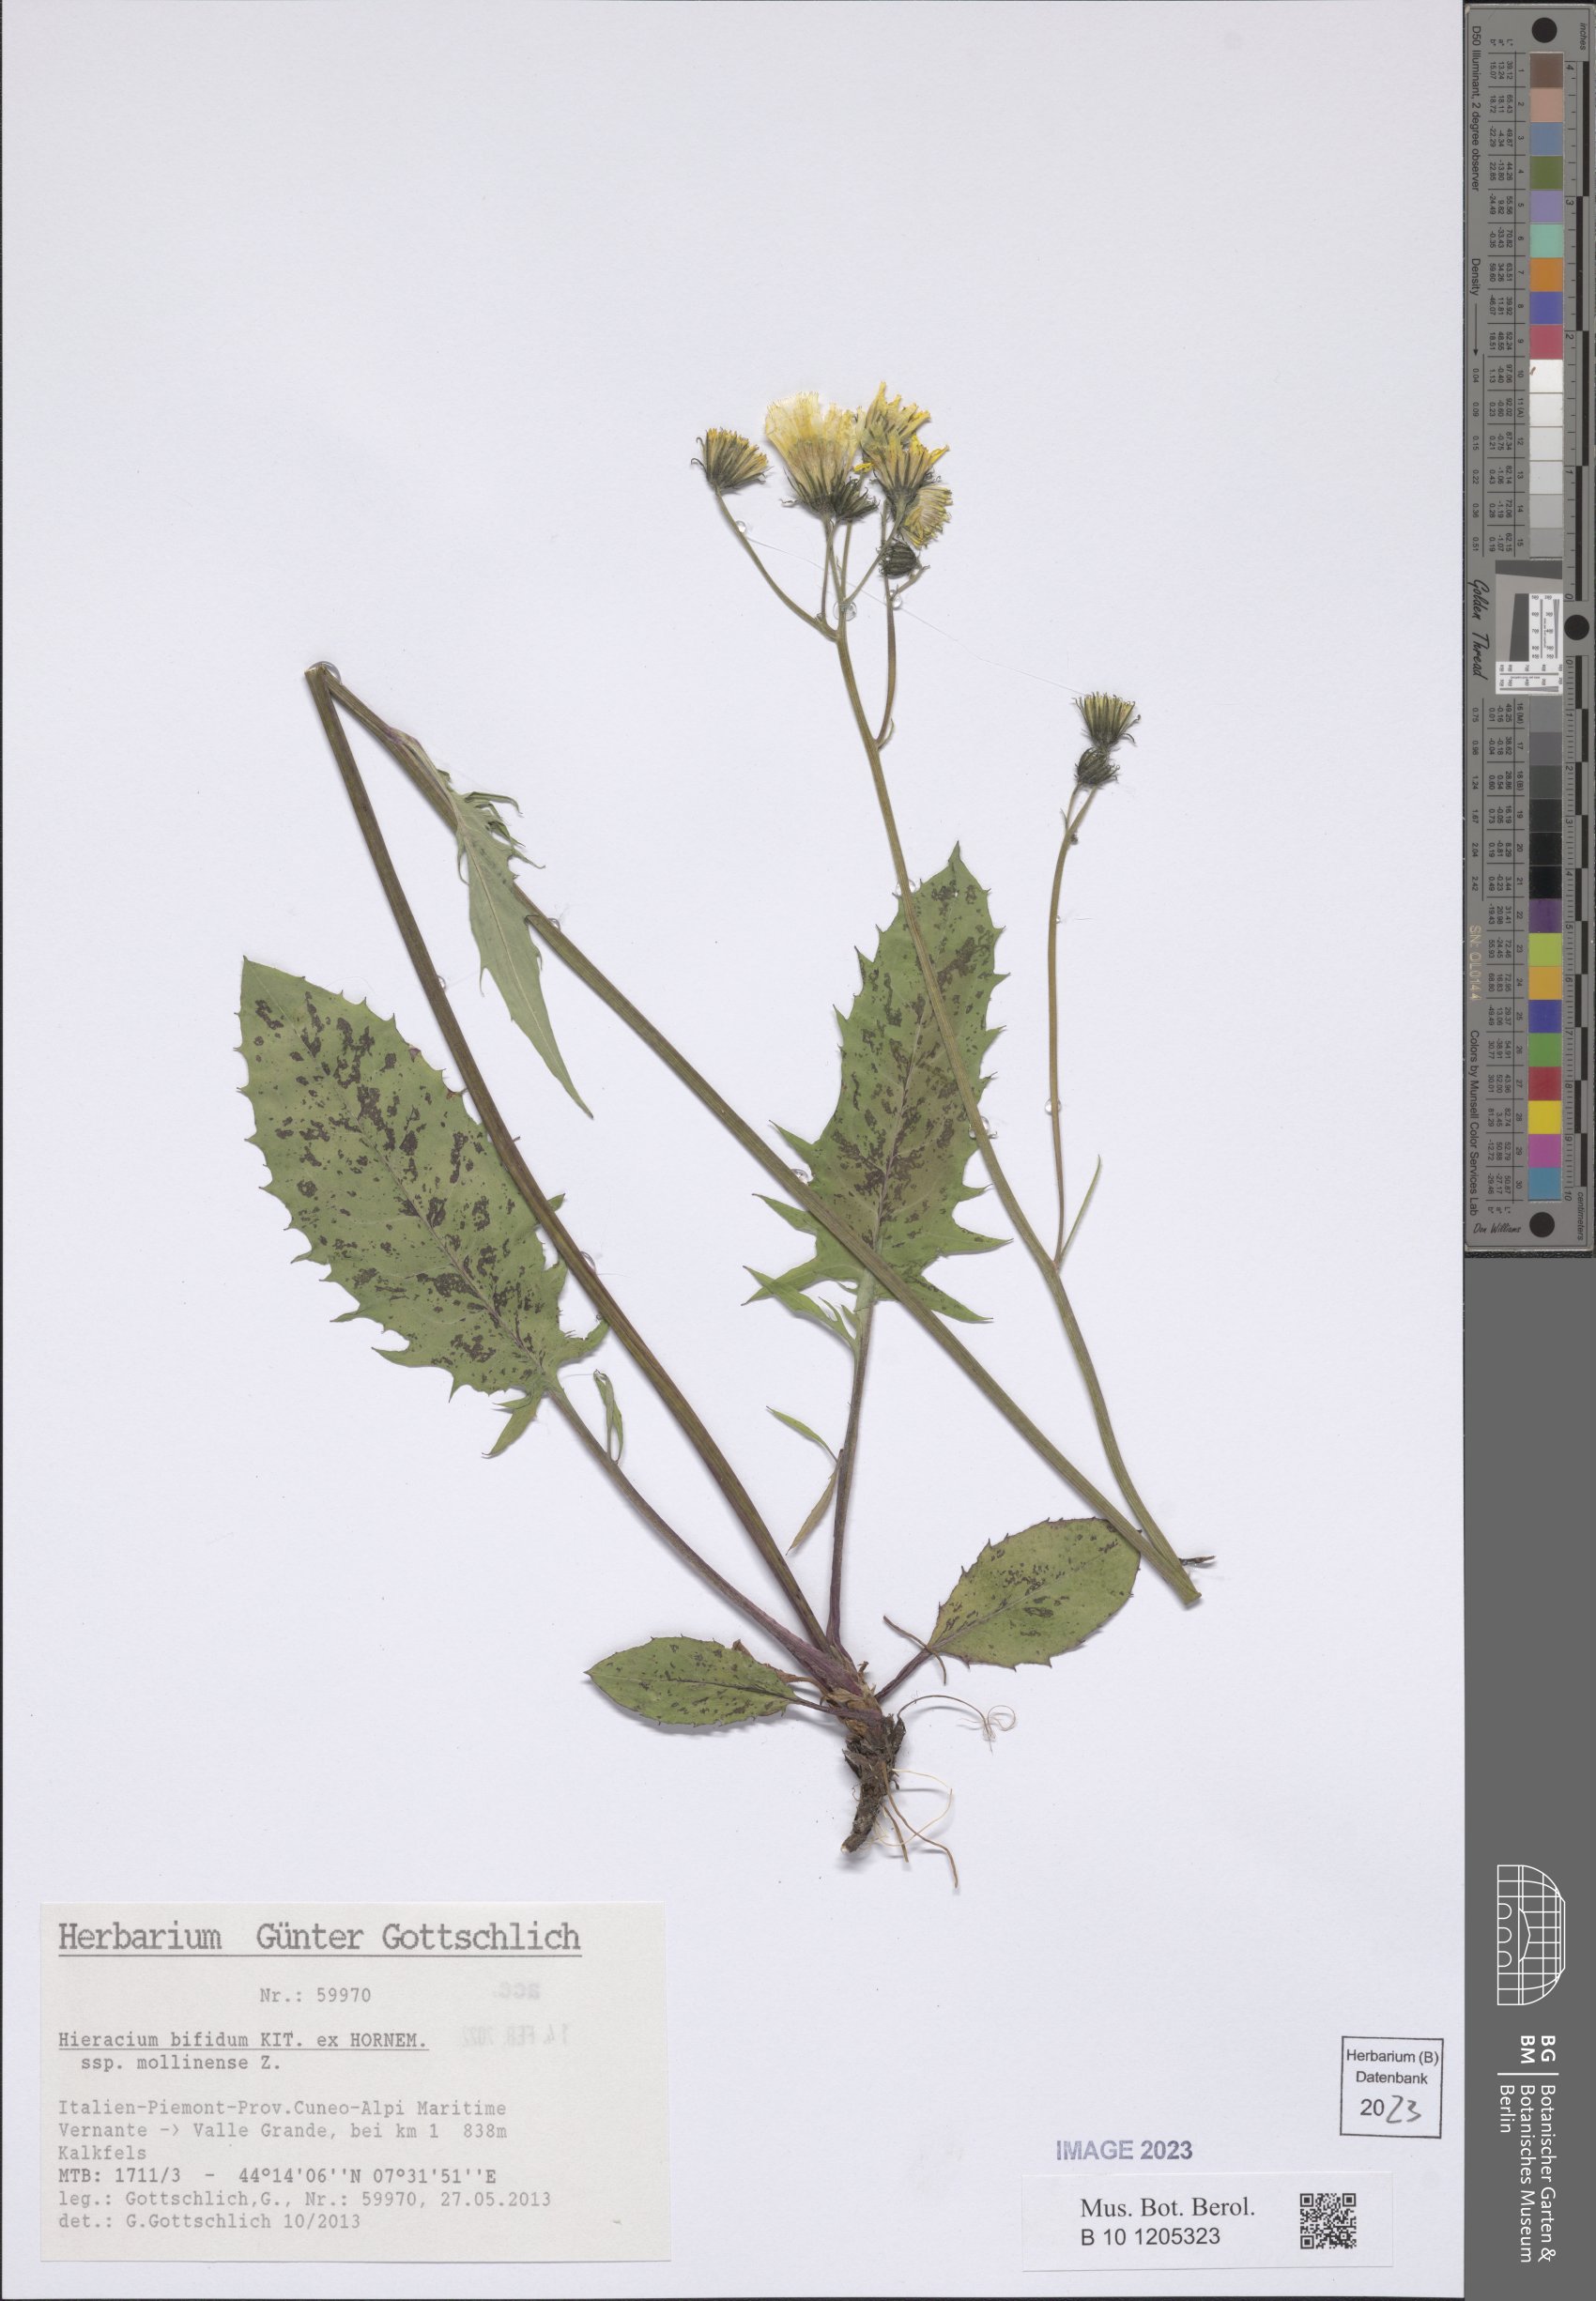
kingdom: Plantae
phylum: Tracheophyta
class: Magnoliopsida
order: Asterales
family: Asteraceae
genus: Hieracium
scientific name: Hieracium bifidum
